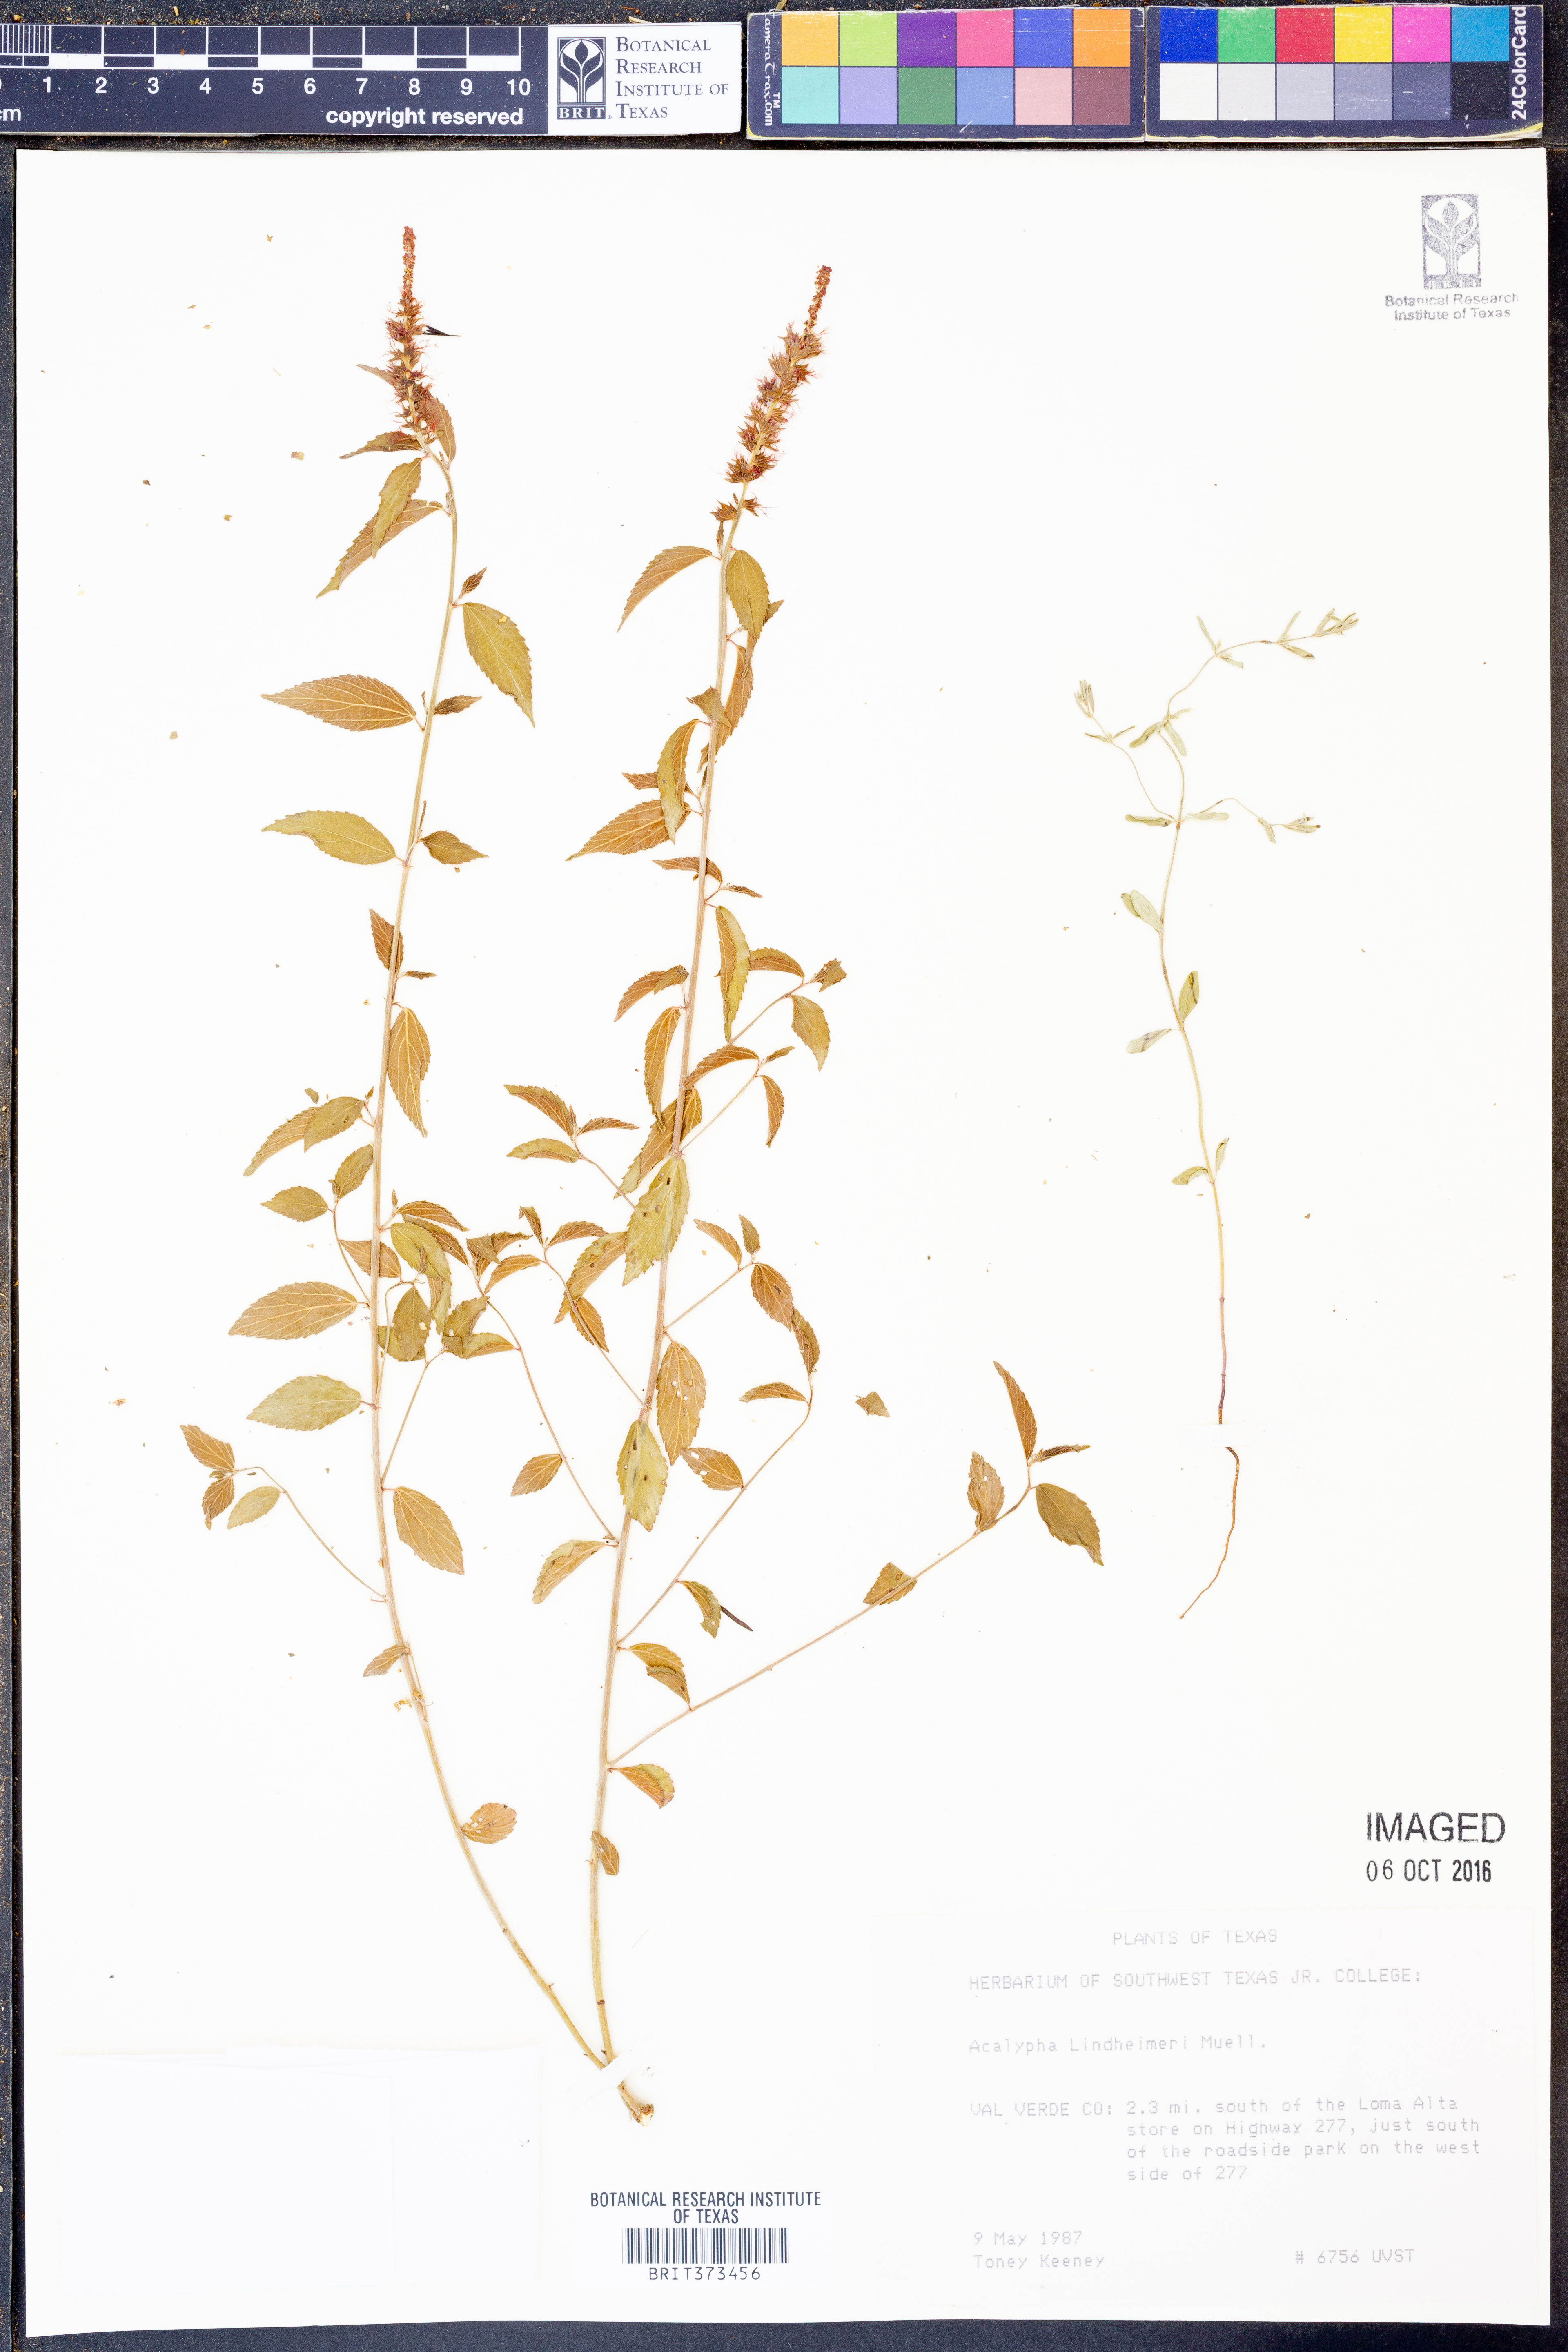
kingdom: Plantae
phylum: Tracheophyta
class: Magnoliopsida
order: Malpighiales
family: Euphorbiaceae
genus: Acalypha
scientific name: Acalypha phleoides
